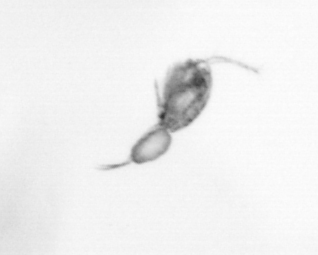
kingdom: Animalia
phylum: Arthropoda
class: Copepoda
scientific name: Copepoda
